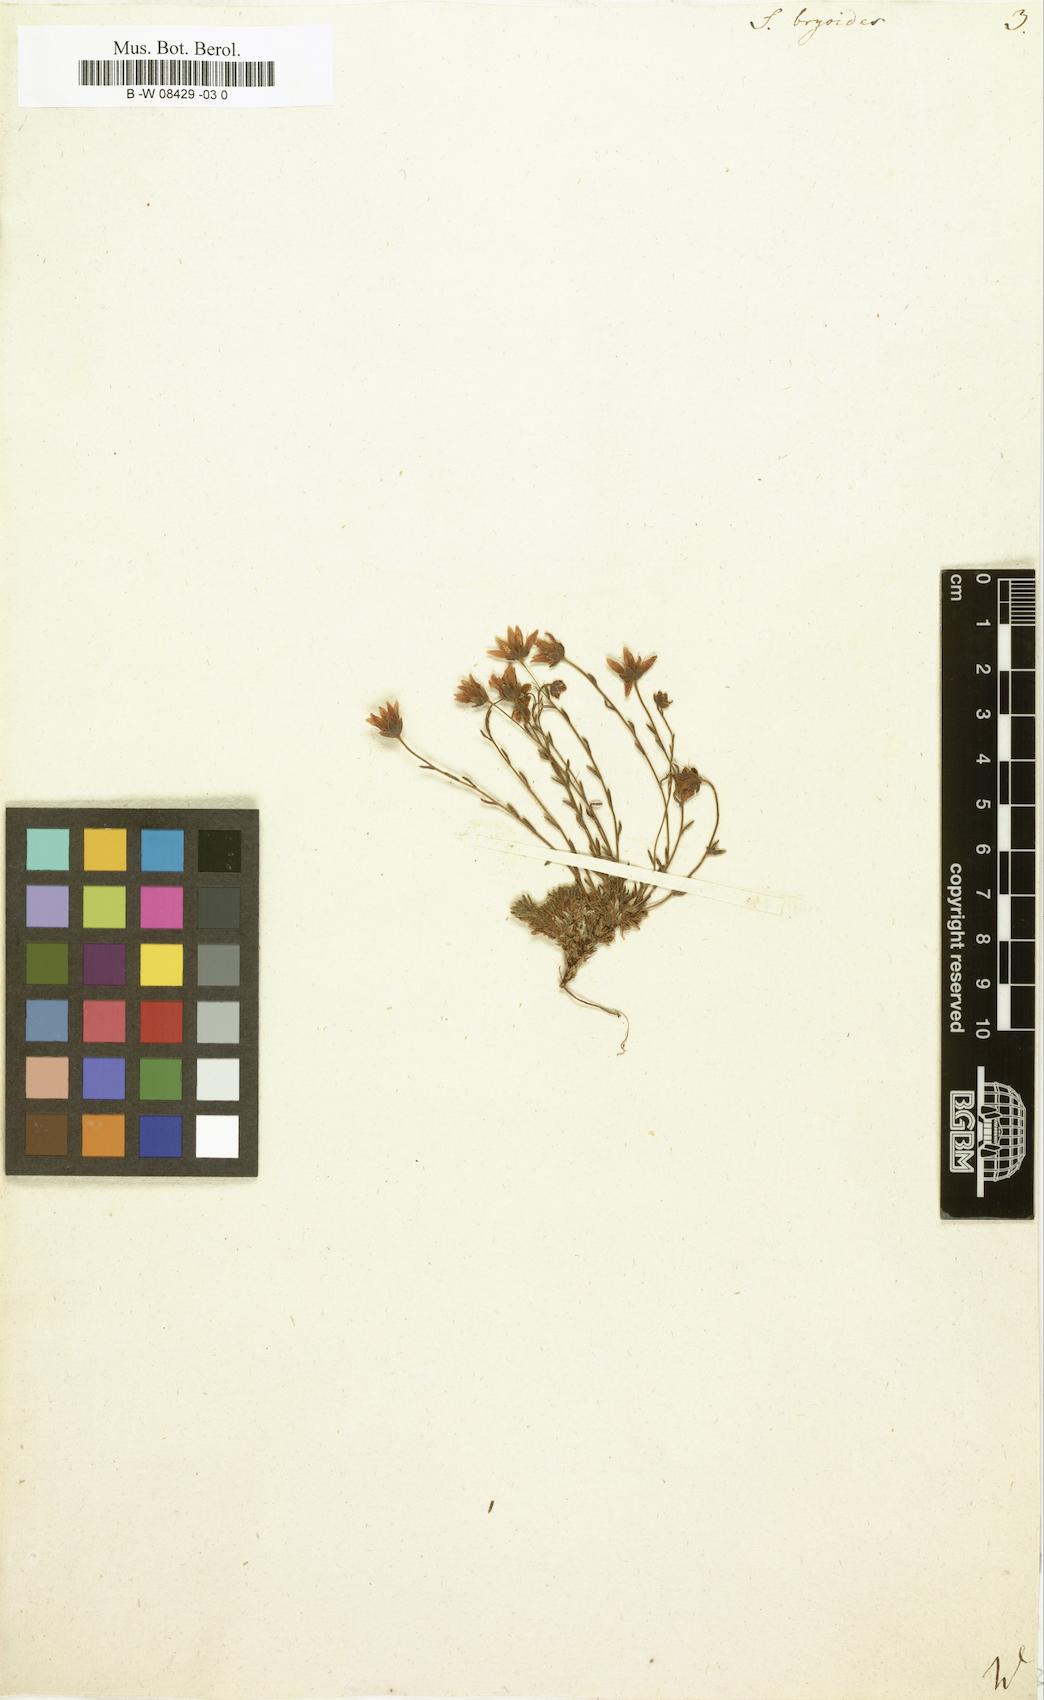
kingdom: Plantae
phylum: Tracheophyta
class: Magnoliopsida
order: Saxifragales
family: Saxifragaceae
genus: Saxifraga
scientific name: Saxifraga bryoides
